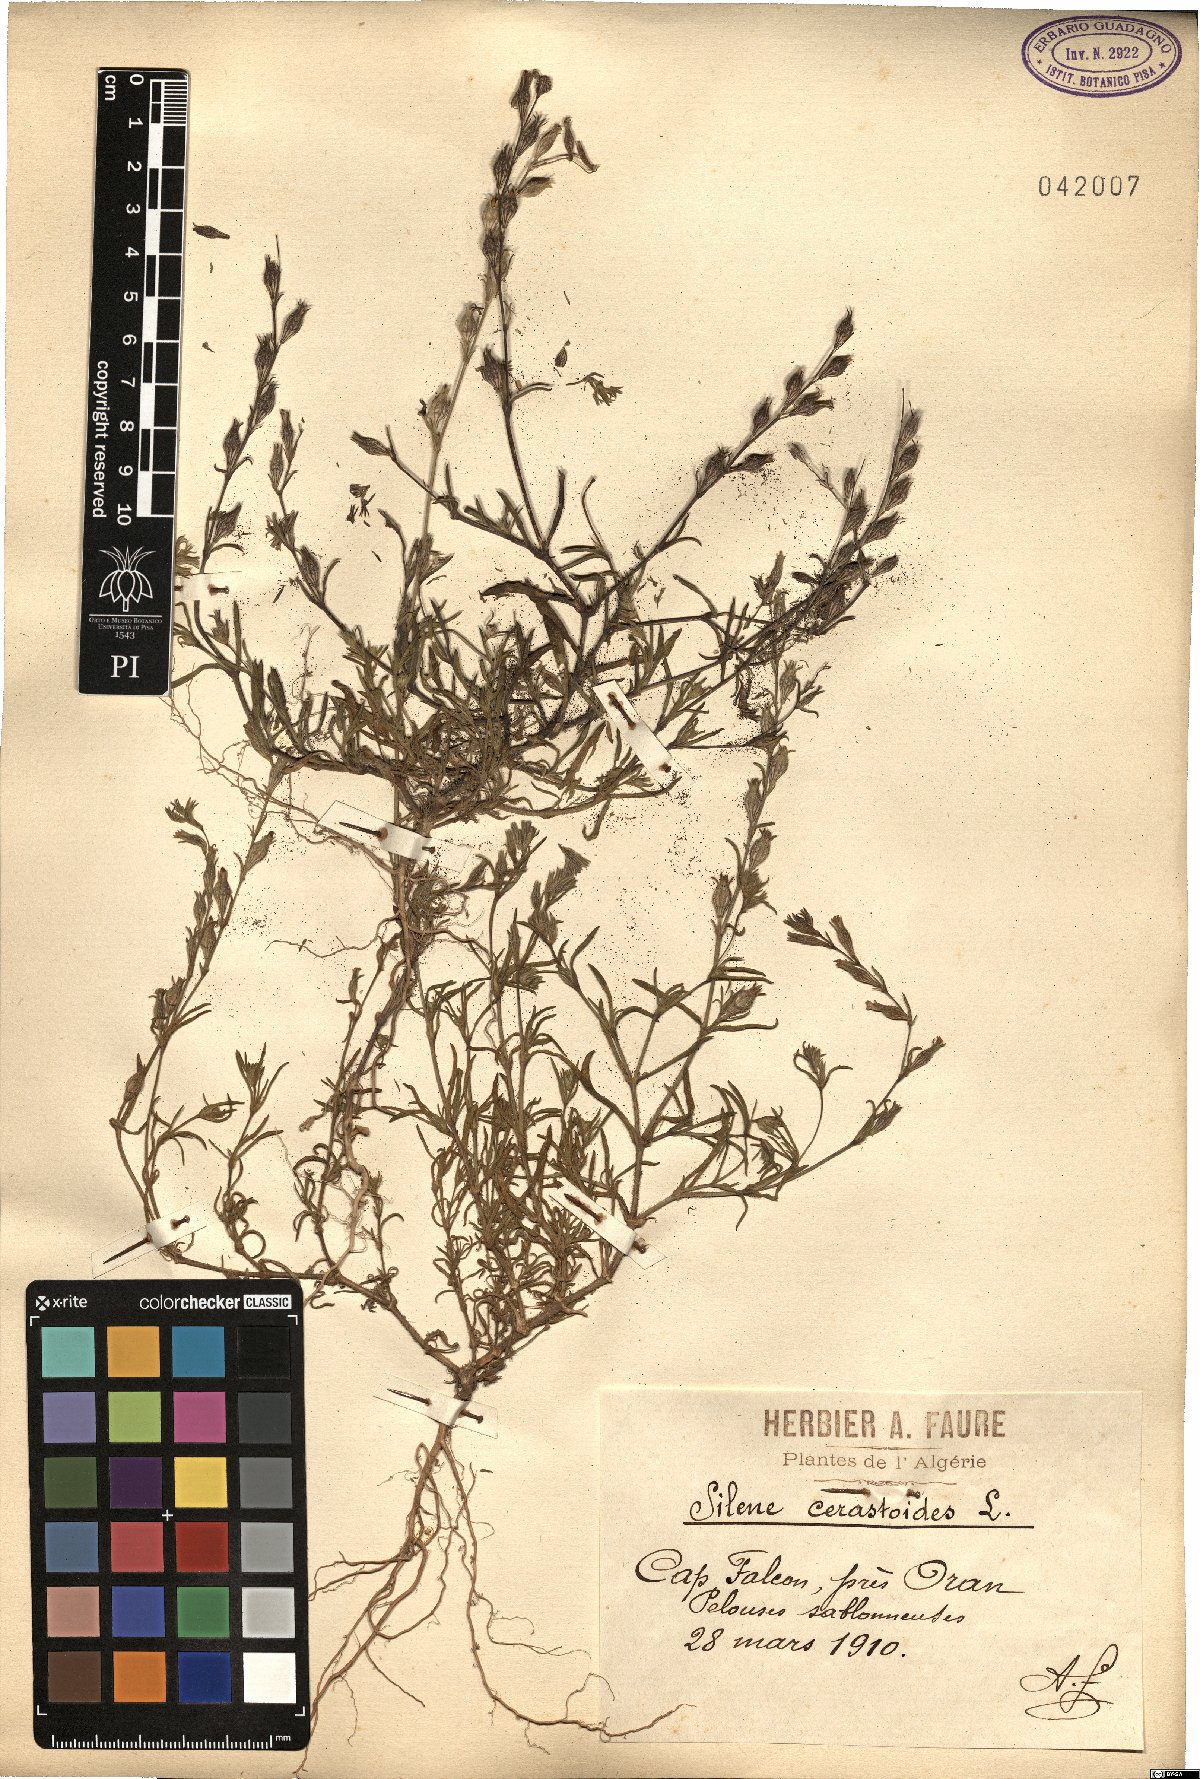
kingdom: Plantae
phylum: Tracheophyta
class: Magnoliopsida
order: Caryophyllales
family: Caryophyllaceae
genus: Silene
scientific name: Silene gallica
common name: Small-flowered catchfly
